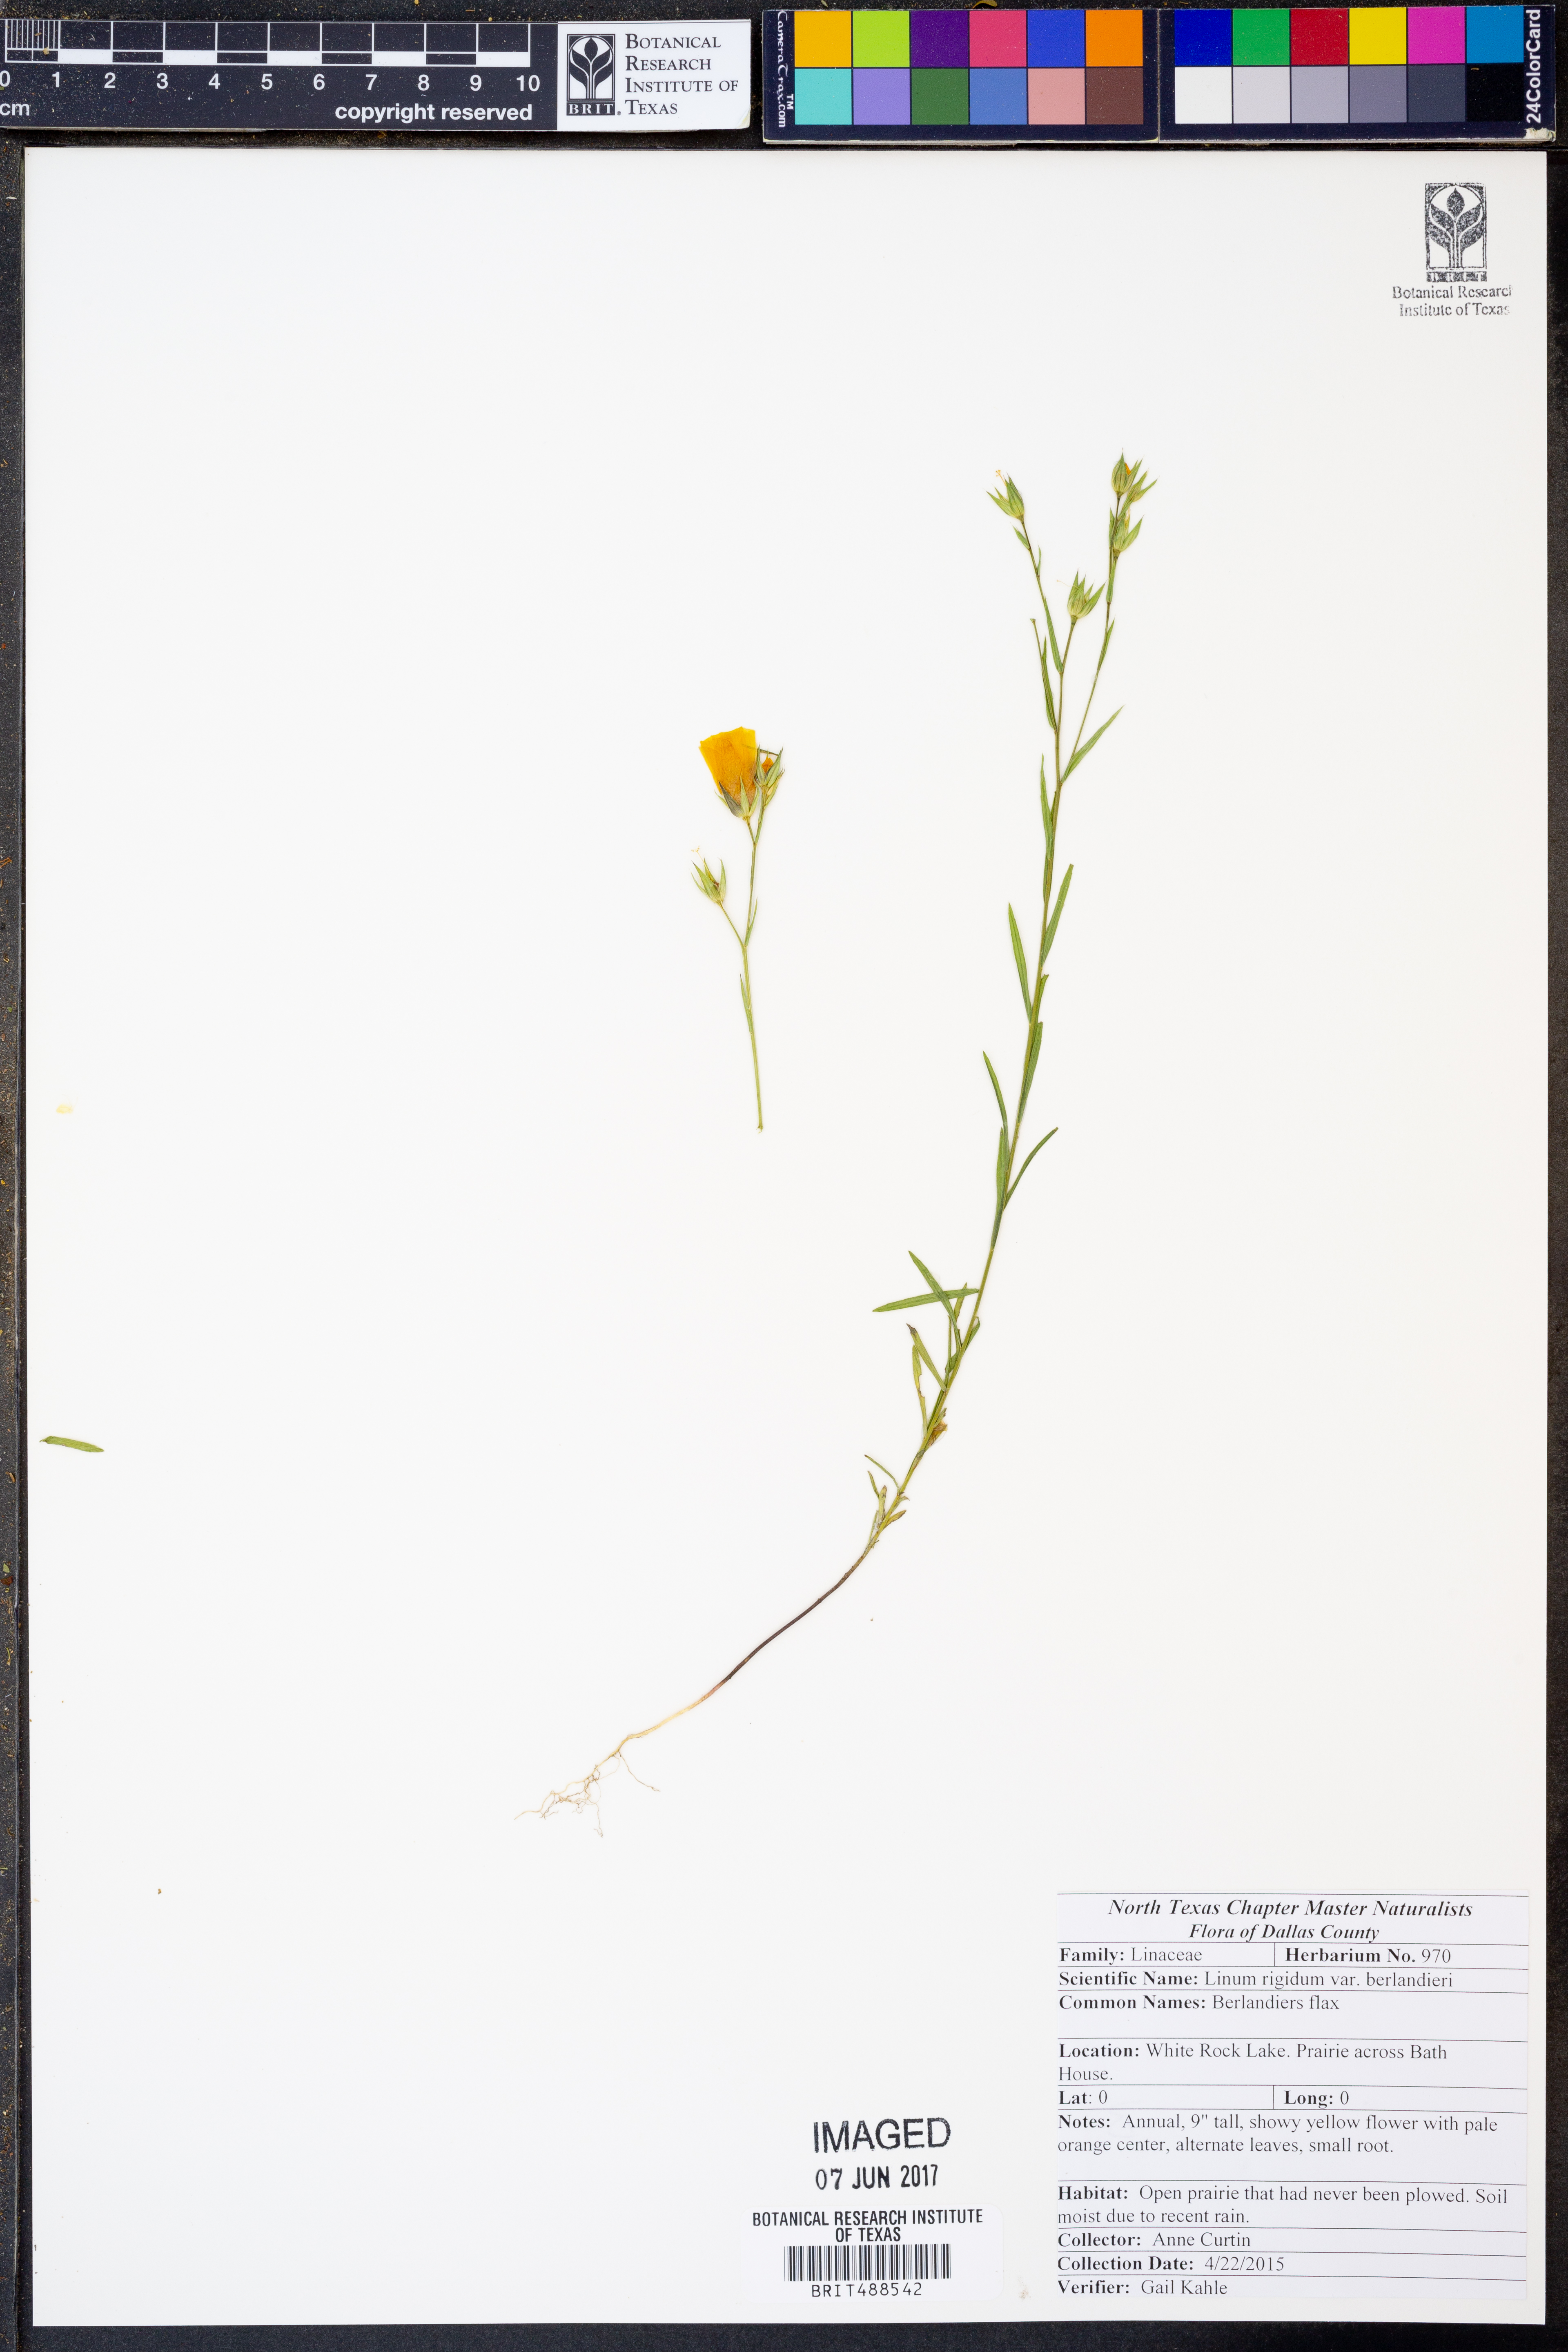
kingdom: Plantae
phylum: Tracheophyta
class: Magnoliopsida
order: Malpighiales
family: Linaceae
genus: Linum
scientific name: Linum berlandieri
